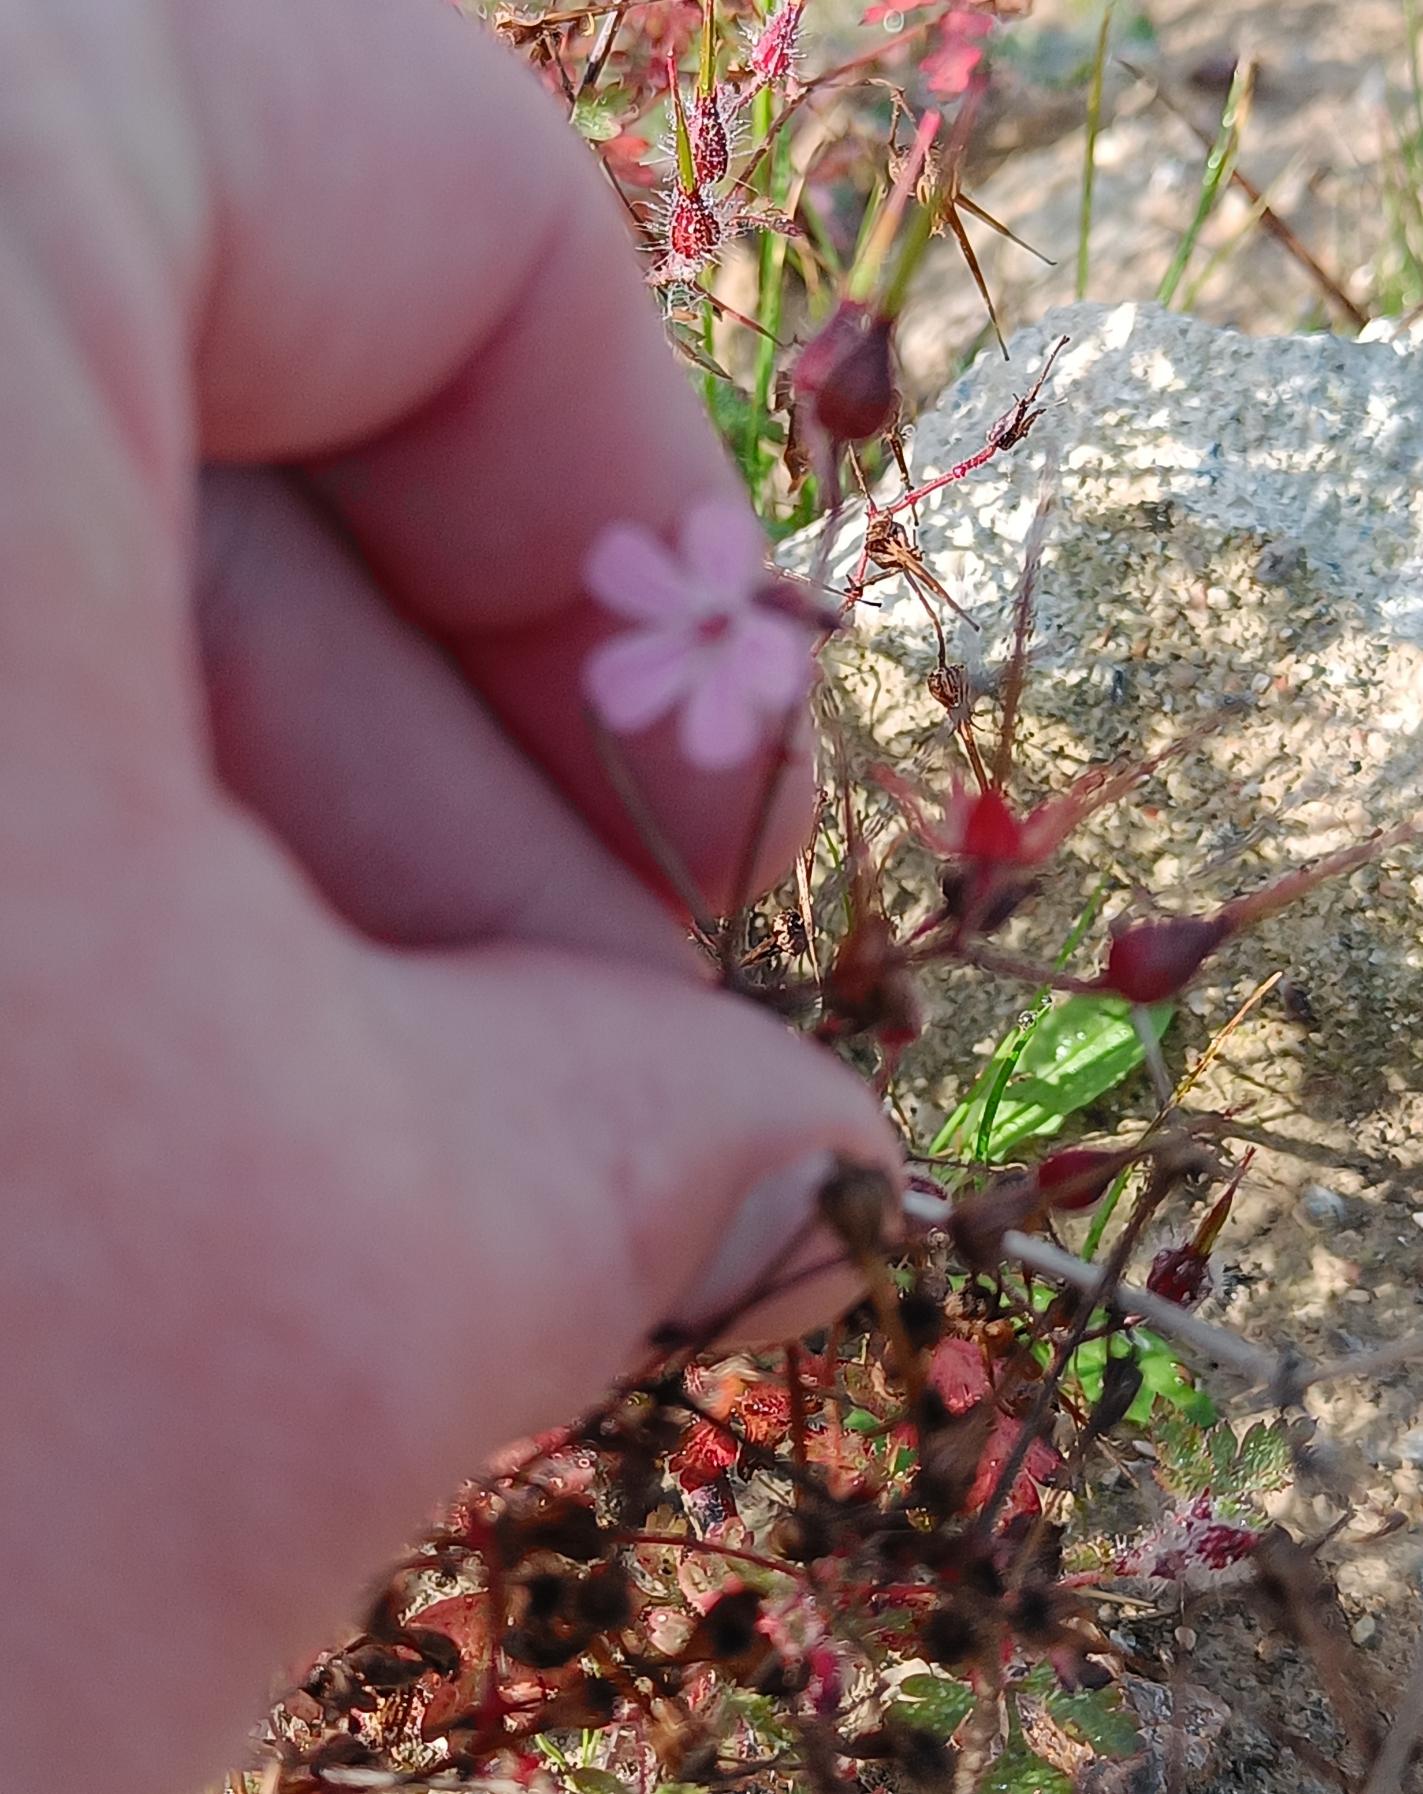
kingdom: Plantae
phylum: Tracheophyta
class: Magnoliopsida
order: Geraniales
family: Geraniaceae
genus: Geranium
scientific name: Geranium robertianum
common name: Stinkende storkenæb
